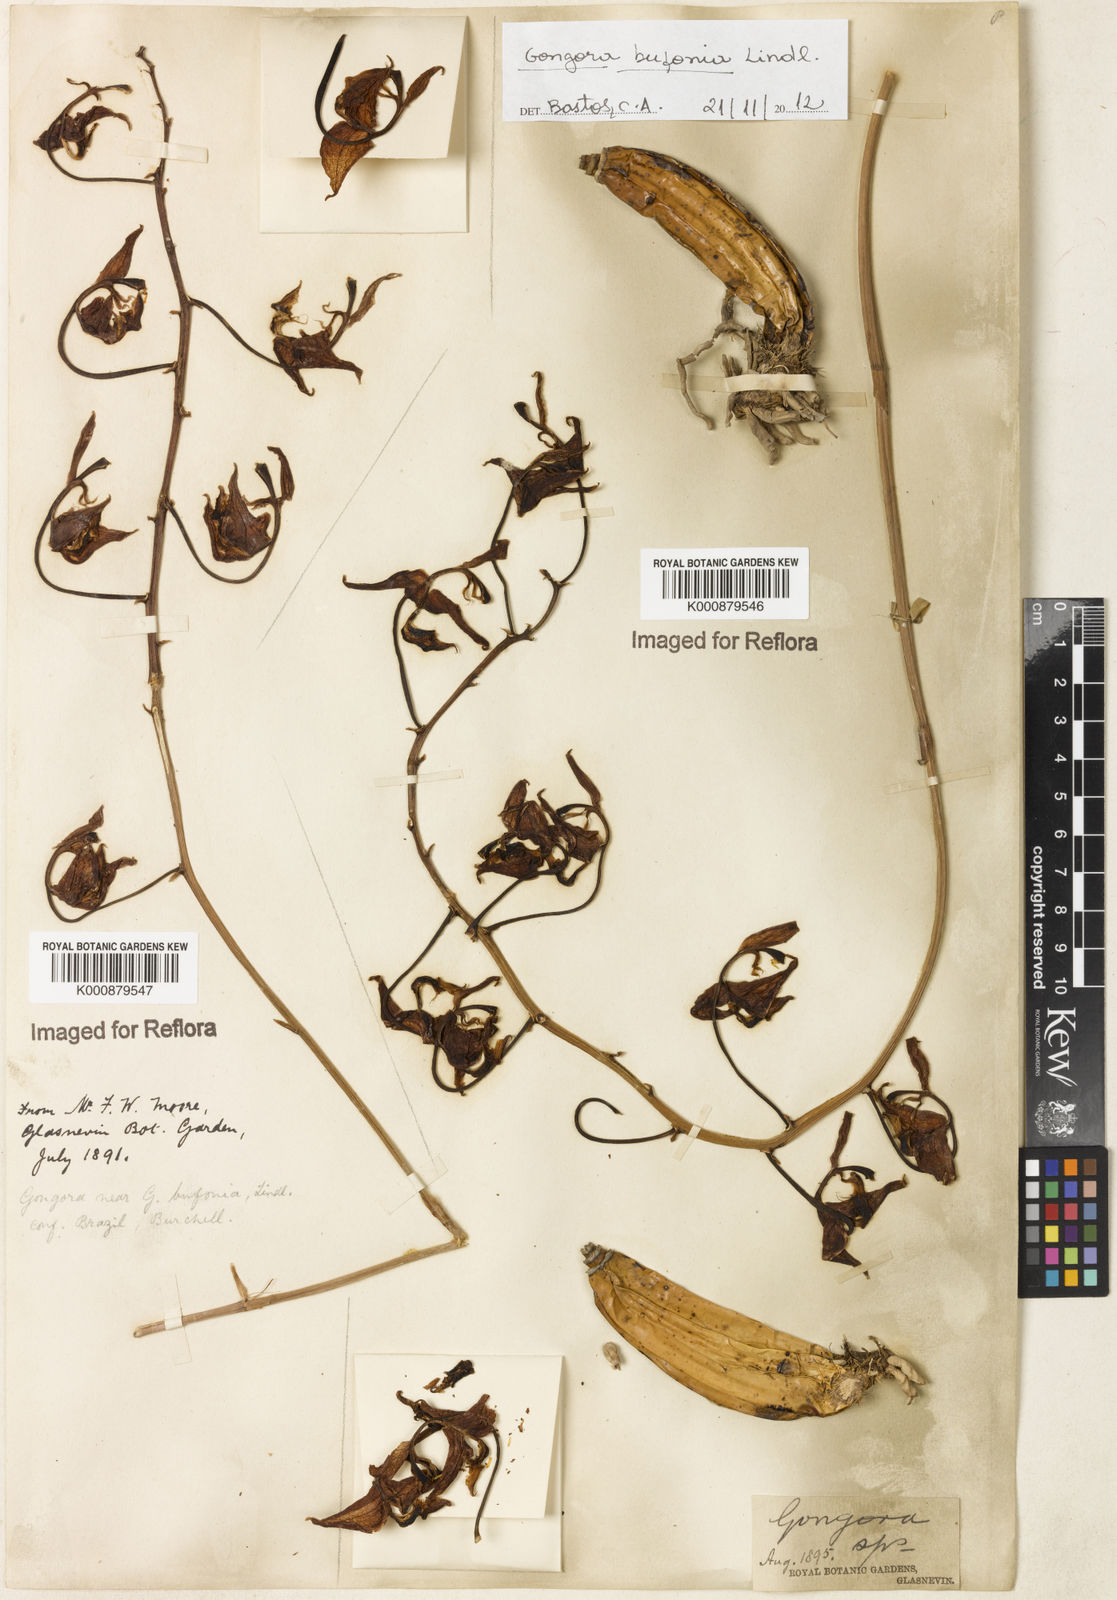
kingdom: Plantae
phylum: Tracheophyta
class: Liliopsida
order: Asparagales
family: Orchidaceae
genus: Gongora
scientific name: Gongora bufonia
